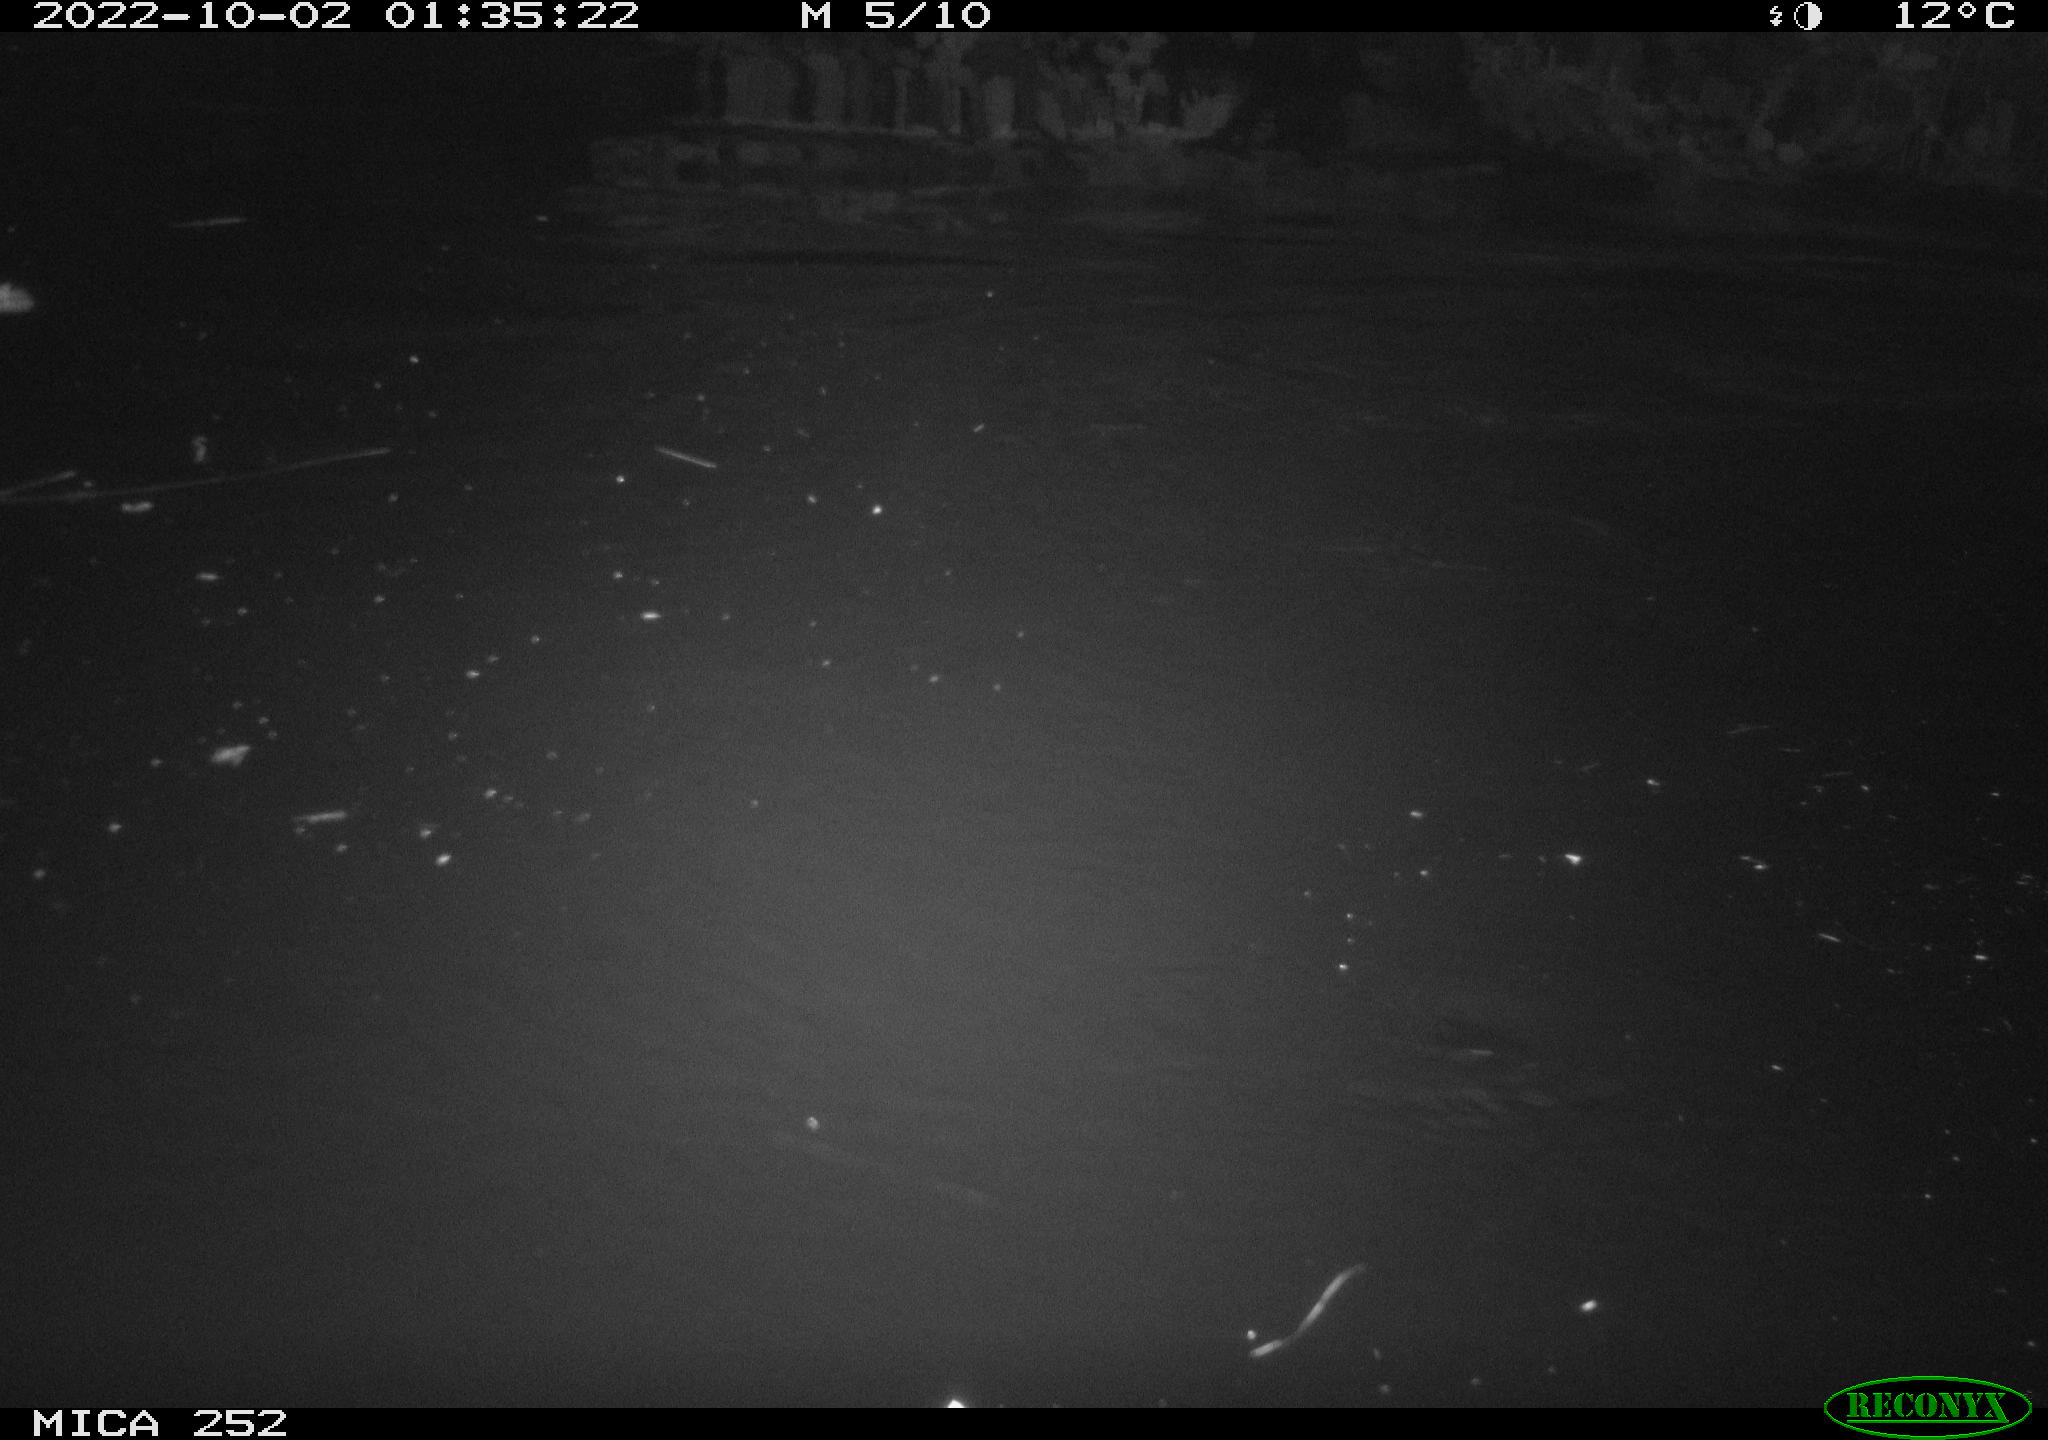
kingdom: Animalia
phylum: Chordata
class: Mammalia
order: Rodentia
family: Castoridae
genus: Castor
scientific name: Castor fiber
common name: Eurasian beaver
